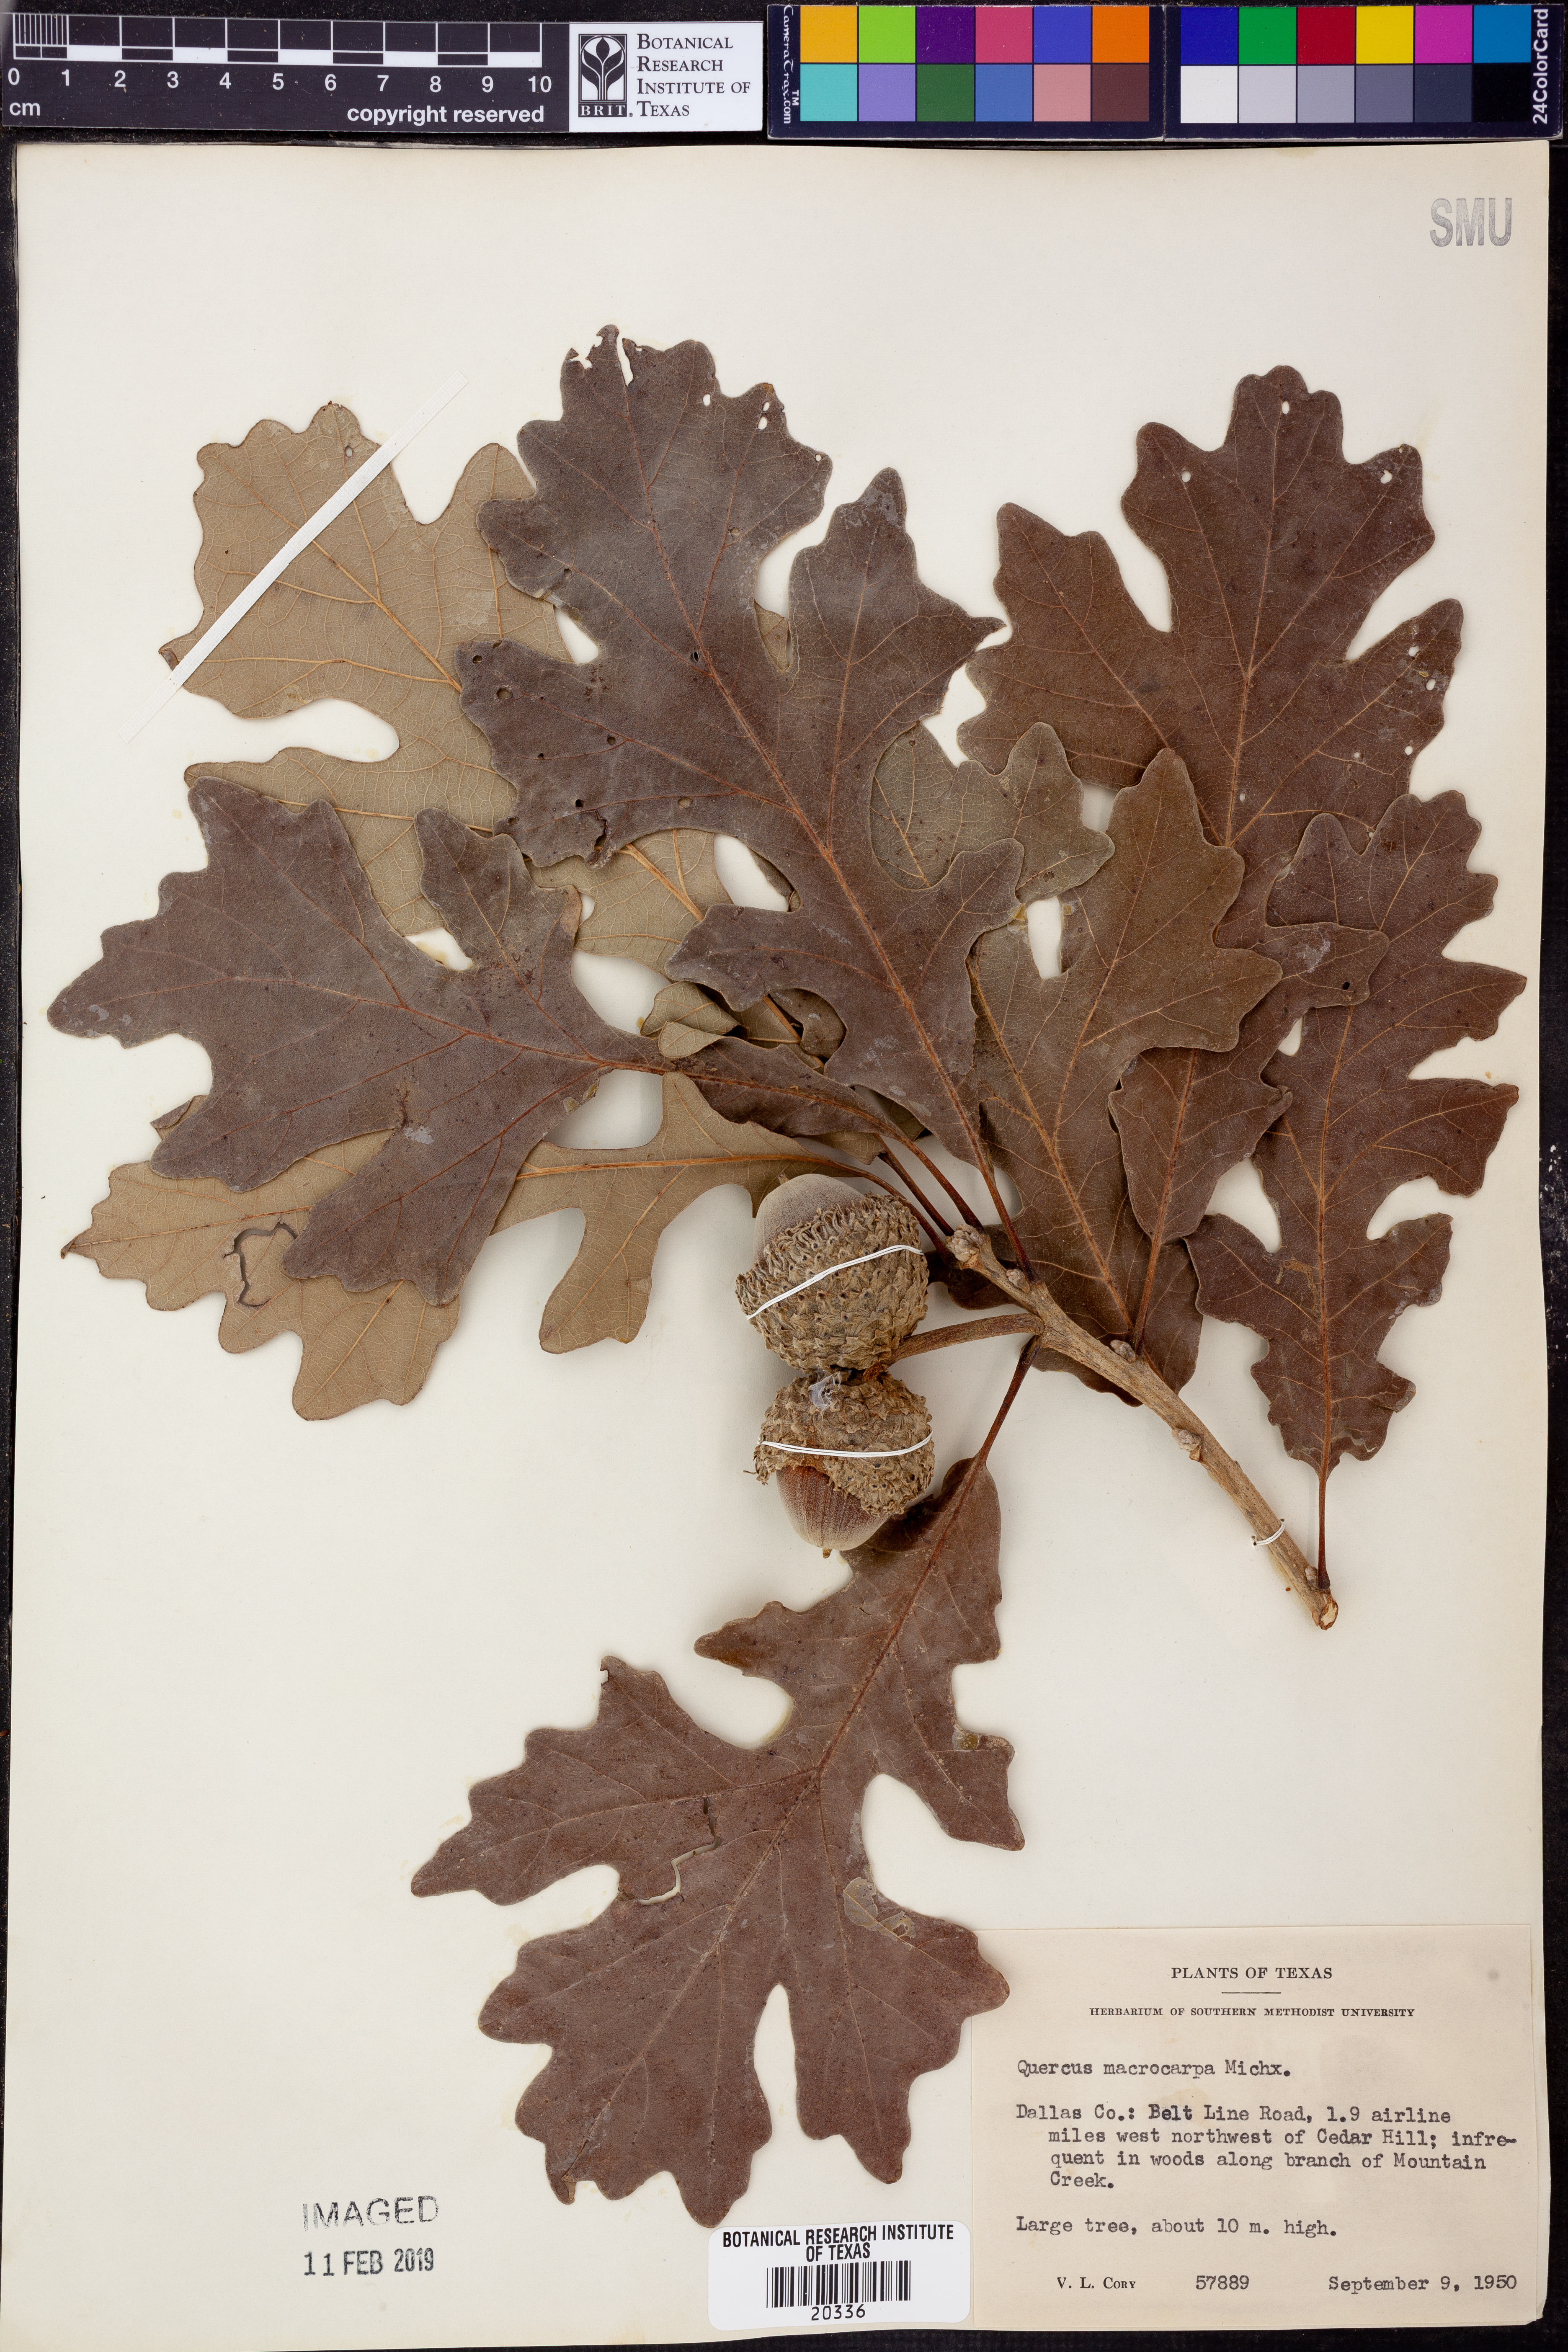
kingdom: Plantae
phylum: Tracheophyta
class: Magnoliopsida
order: Fagales
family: Fagaceae
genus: Quercus
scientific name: Quercus macrocarpa
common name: Bur oak
